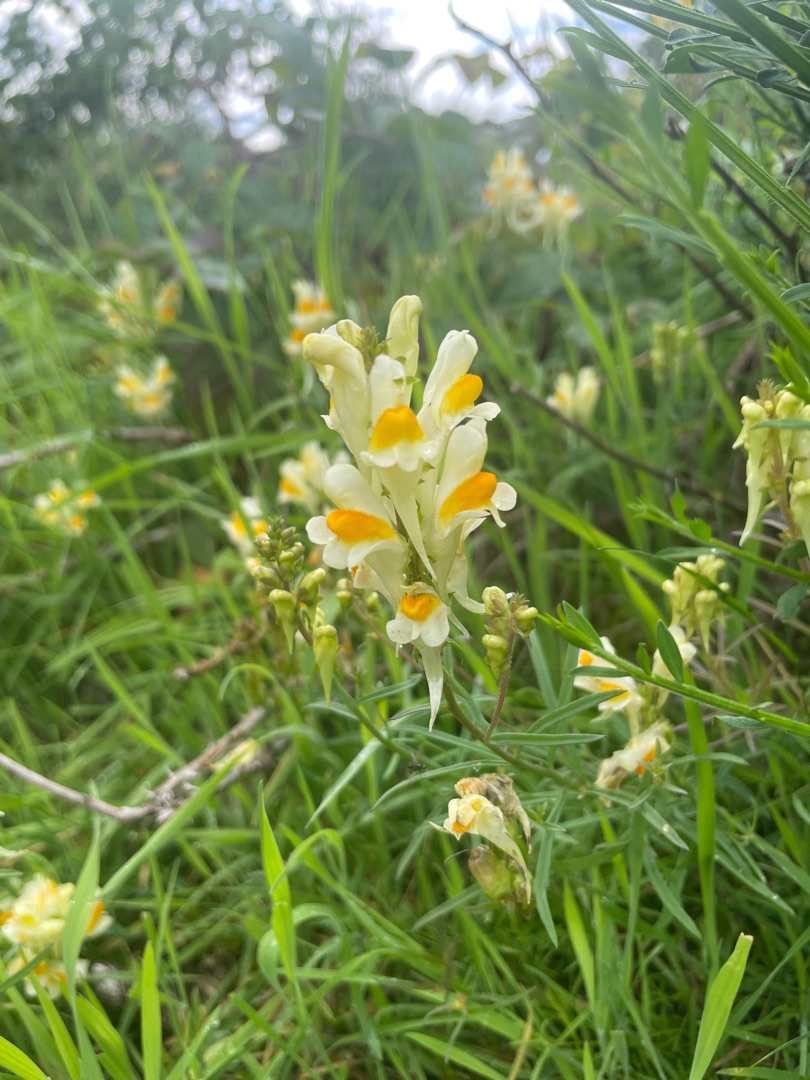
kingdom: Plantae
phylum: Tracheophyta
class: Magnoliopsida
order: Lamiales
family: Plantaginaceae
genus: Linaria
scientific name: Linaria vulgaris
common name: Almindelig torskemund
